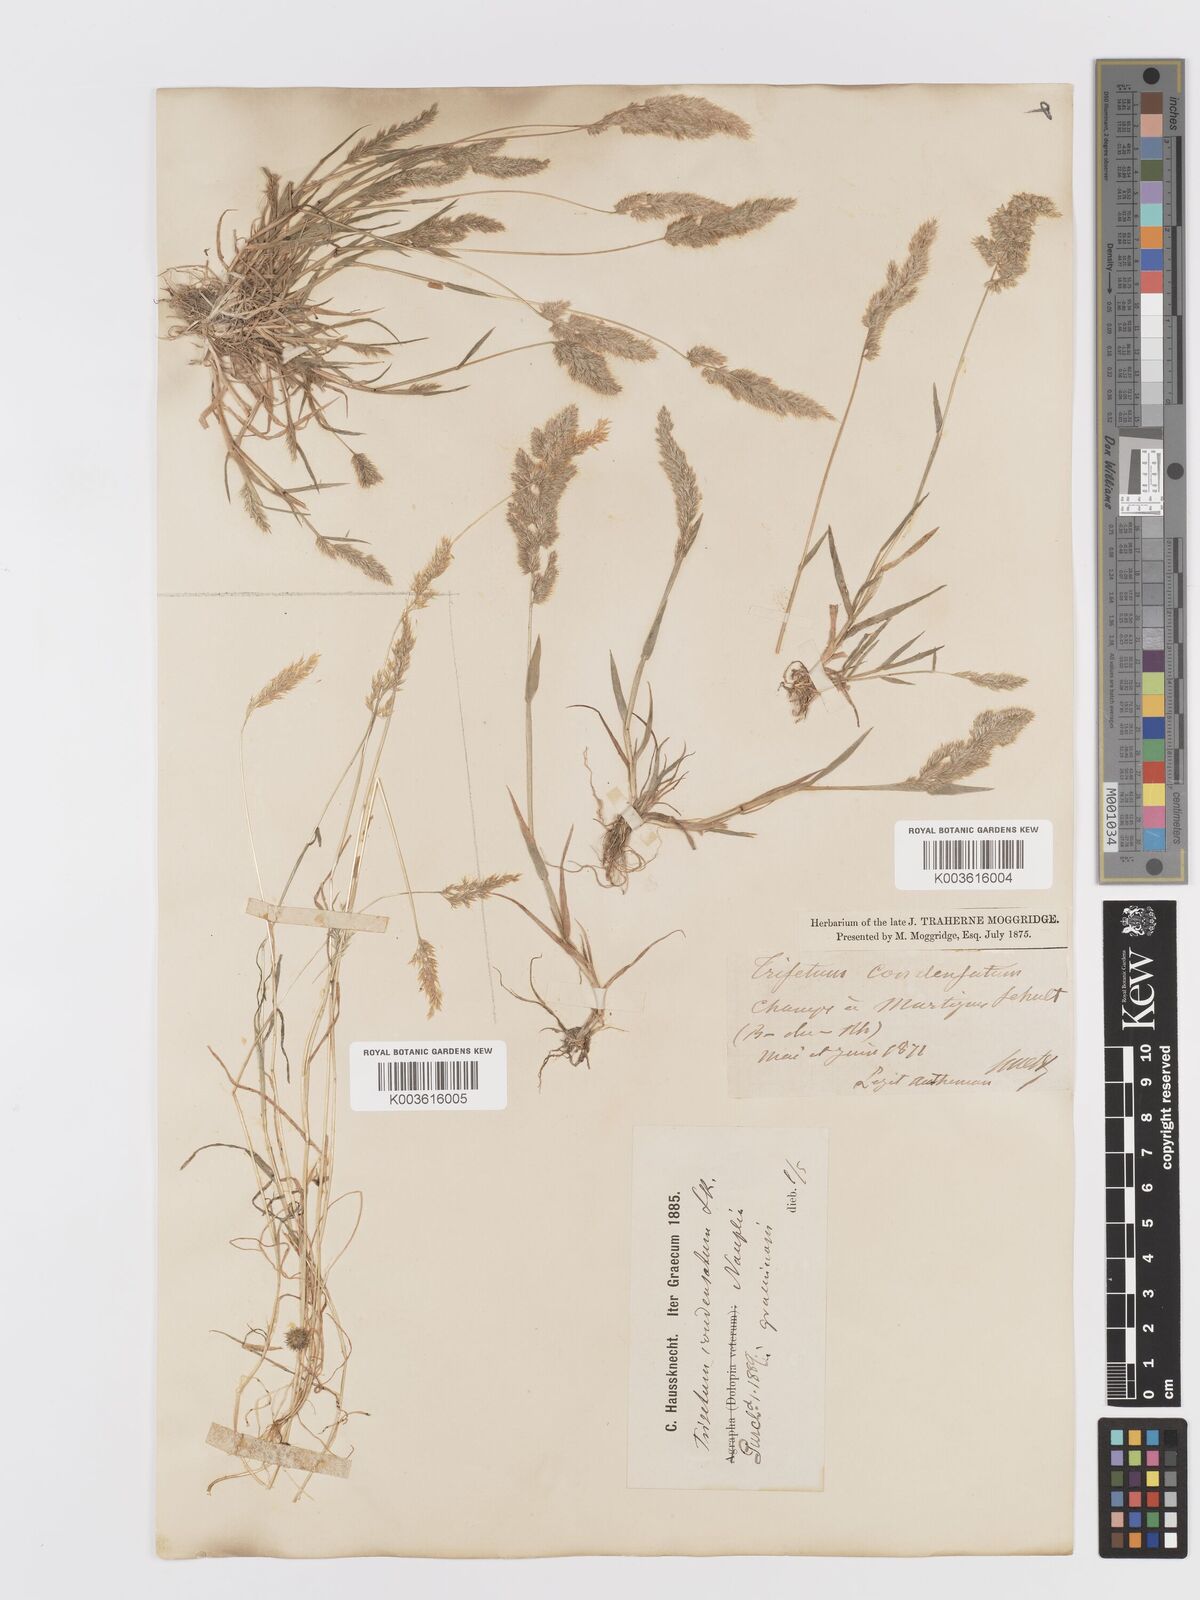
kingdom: Plantae
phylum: Tracheophyta
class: Liliopsida
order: Poales
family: Poaceae
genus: Trisetaria
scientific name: Trisetaria aurea
